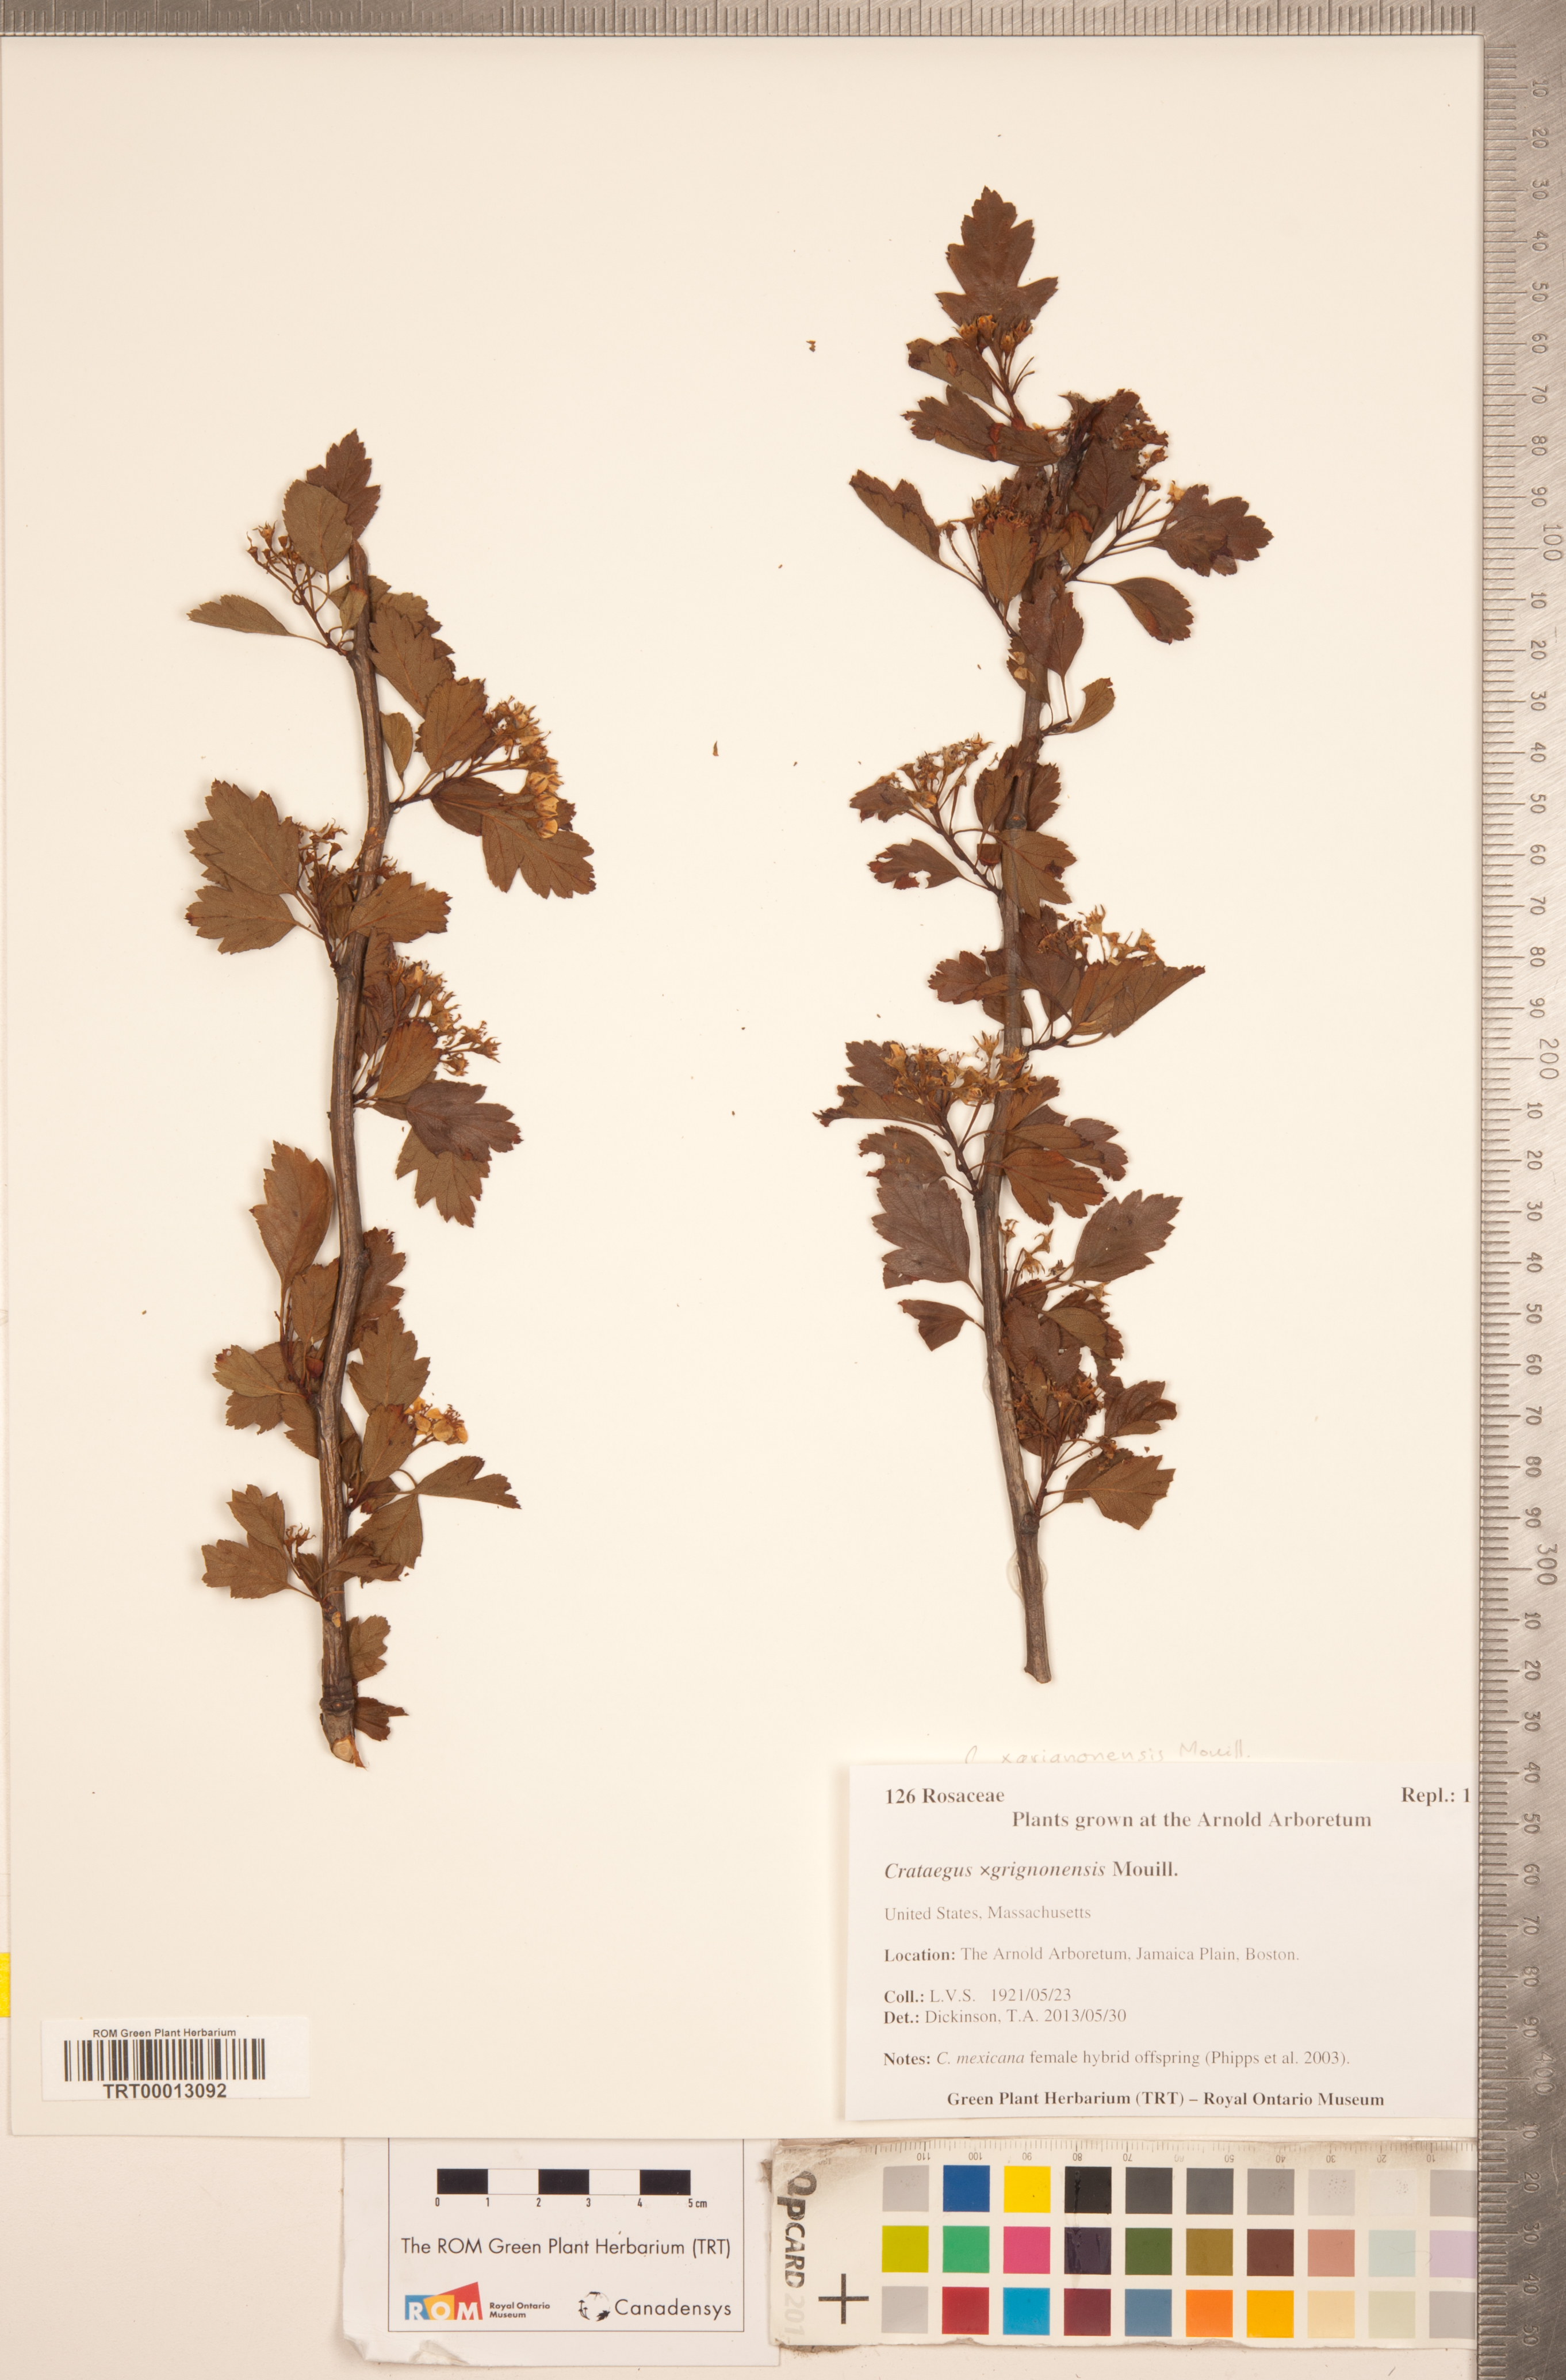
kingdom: Plantae
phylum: Tracheophyta
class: Magnoliopsida
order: Rosales
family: Rosaceae
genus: Crataegus
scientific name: Crataegus grignonensis
